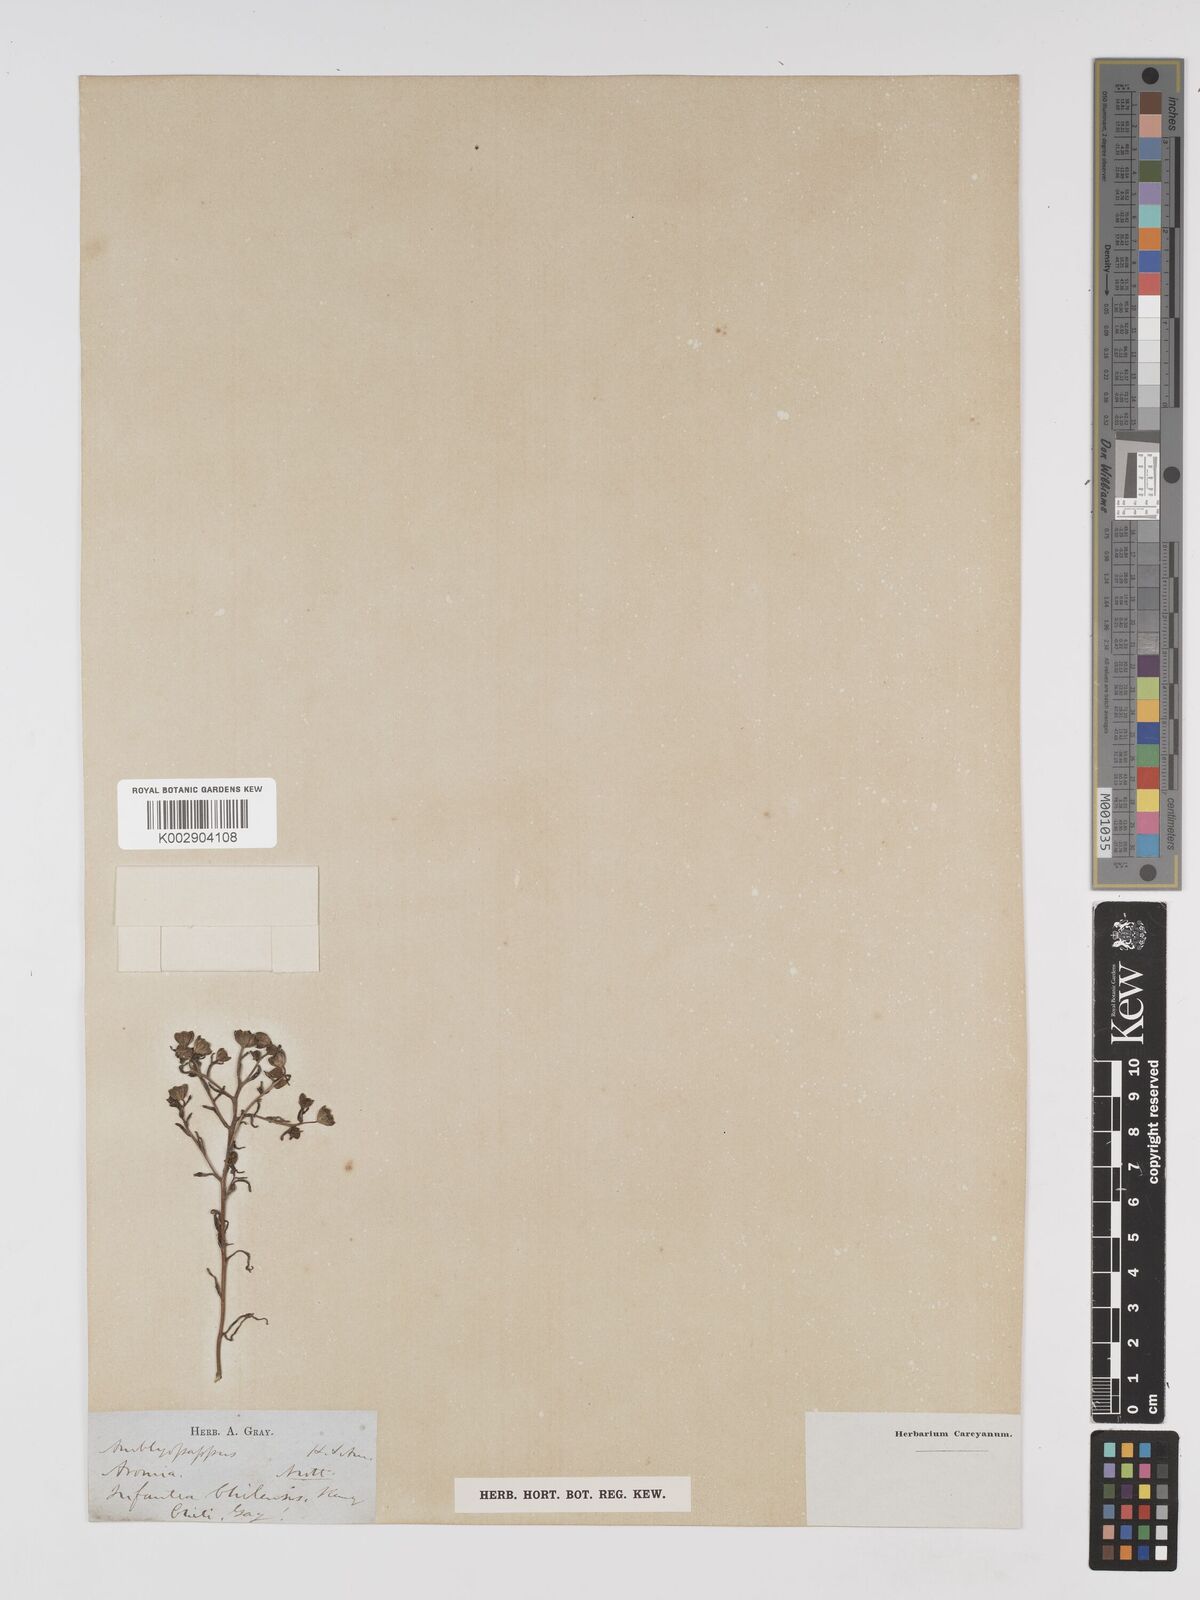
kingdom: Plantae
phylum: Tracheophyta
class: Magnoliopsida
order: Asterales
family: Asteraceae
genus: Amblyopappus
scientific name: Amblyopappus pusillus
